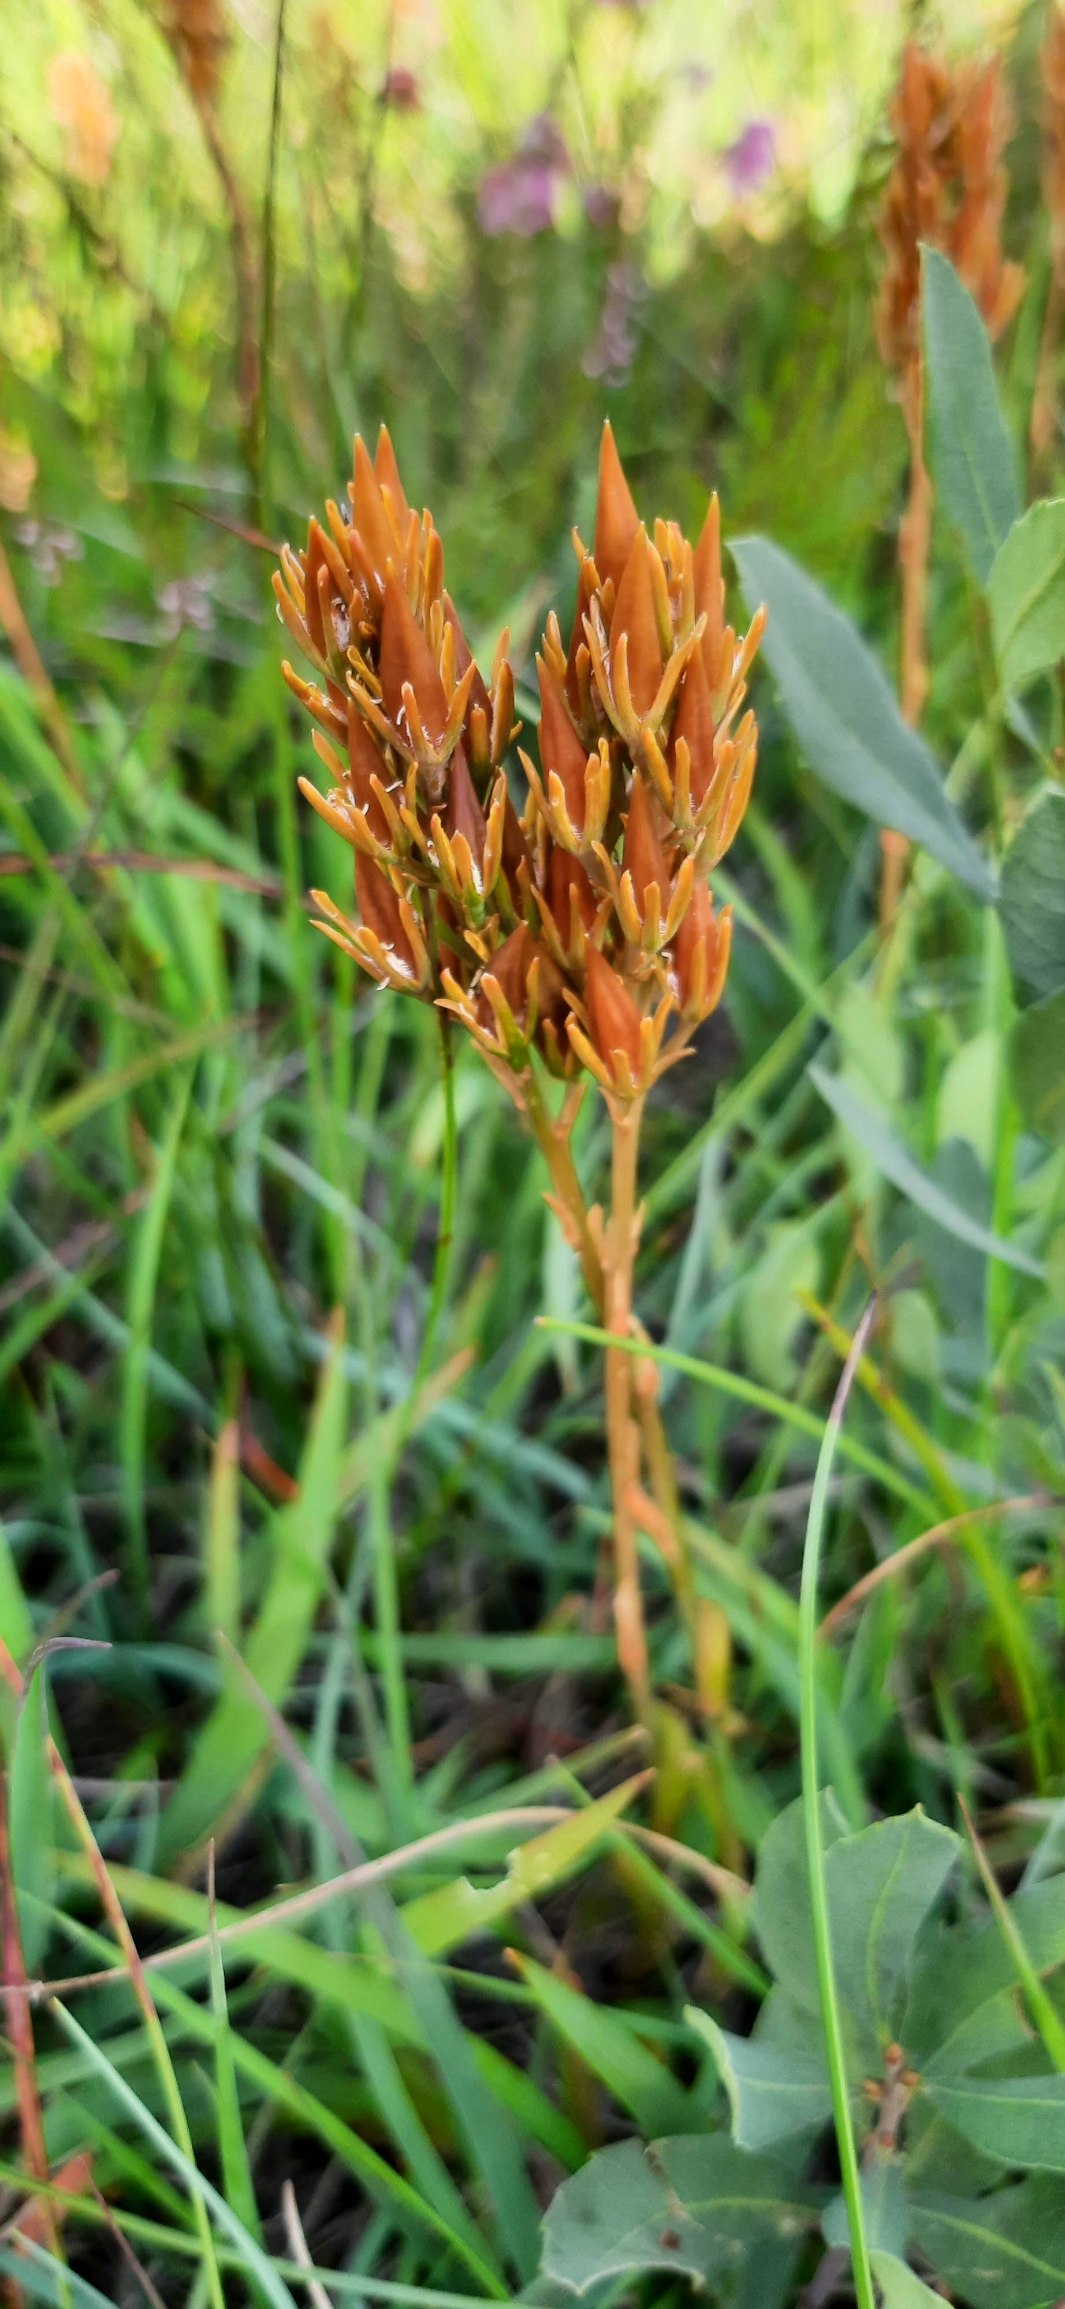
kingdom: Plantae
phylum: Tracheophyta
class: Liliopsida
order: Dioscoreales
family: Nartheciaceae
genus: Narthecium
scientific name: Narthecium ossifragum
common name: Benbræk
